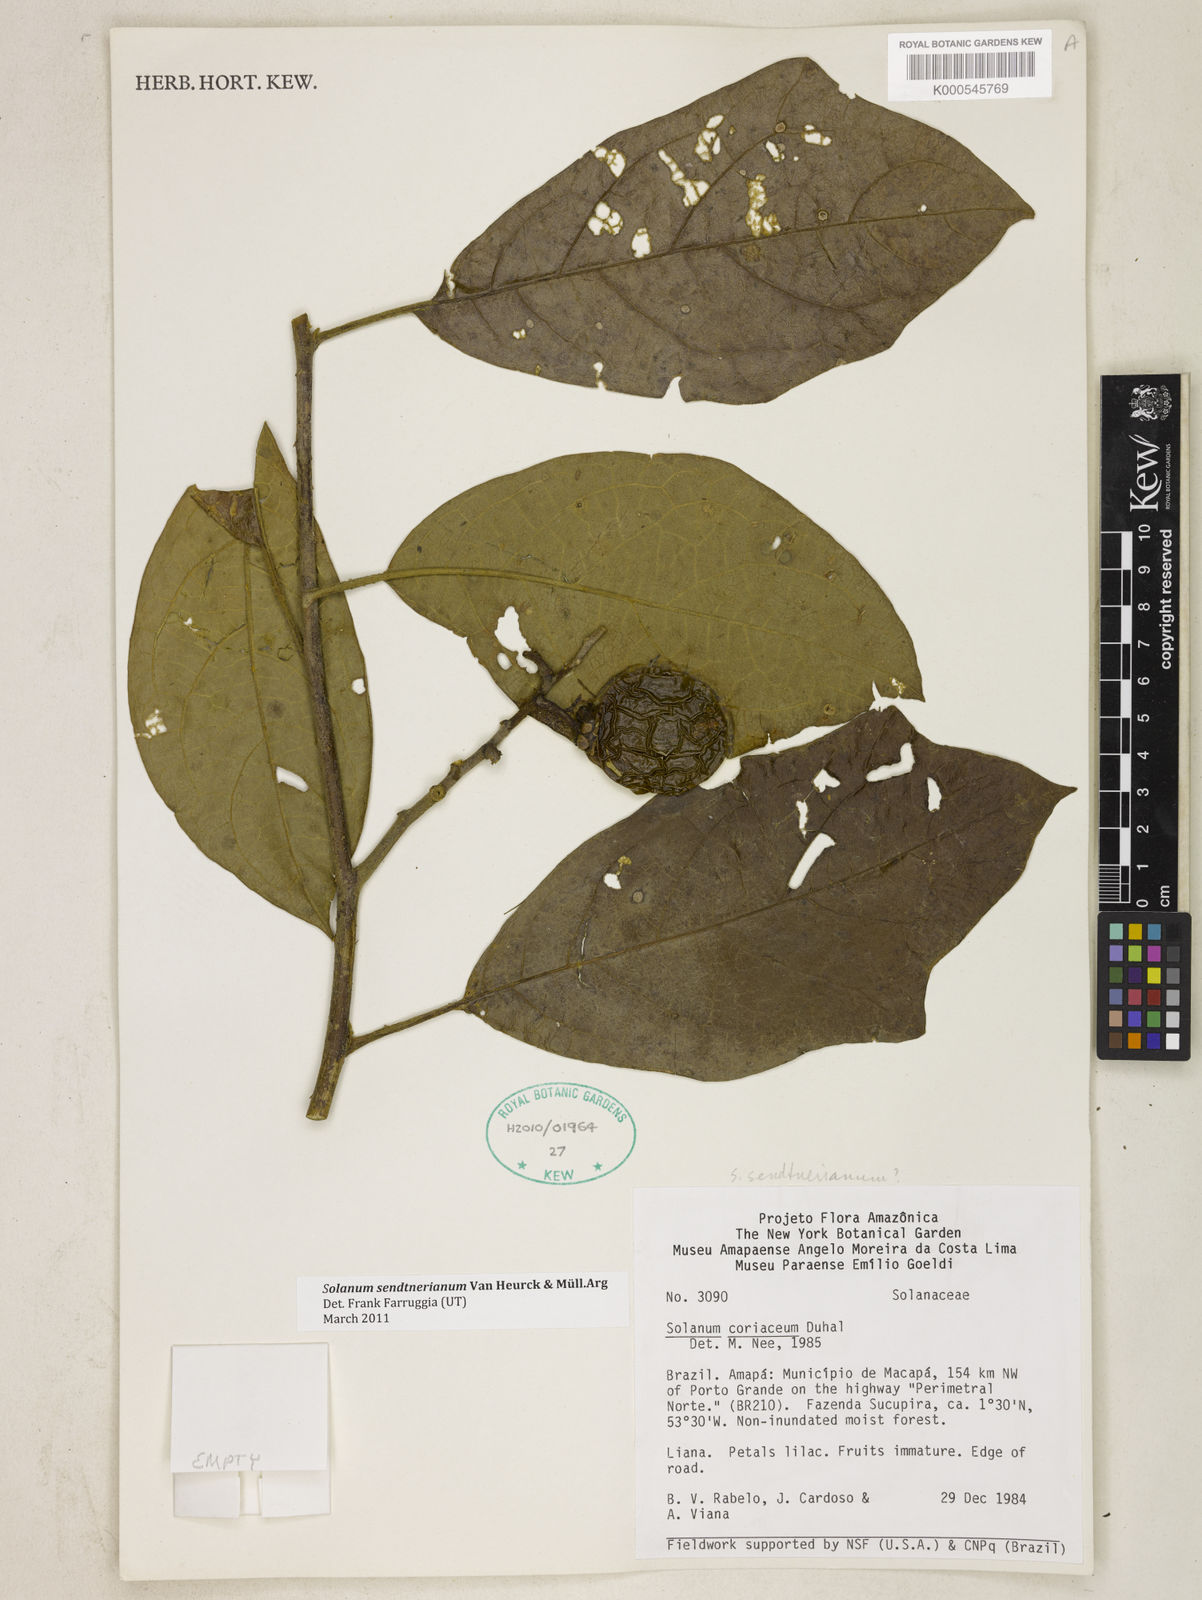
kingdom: Plantae
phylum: Tracheophyta
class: Magnoliopsida
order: Solanales
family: Solanaceae
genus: Solanum
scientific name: Solanum
